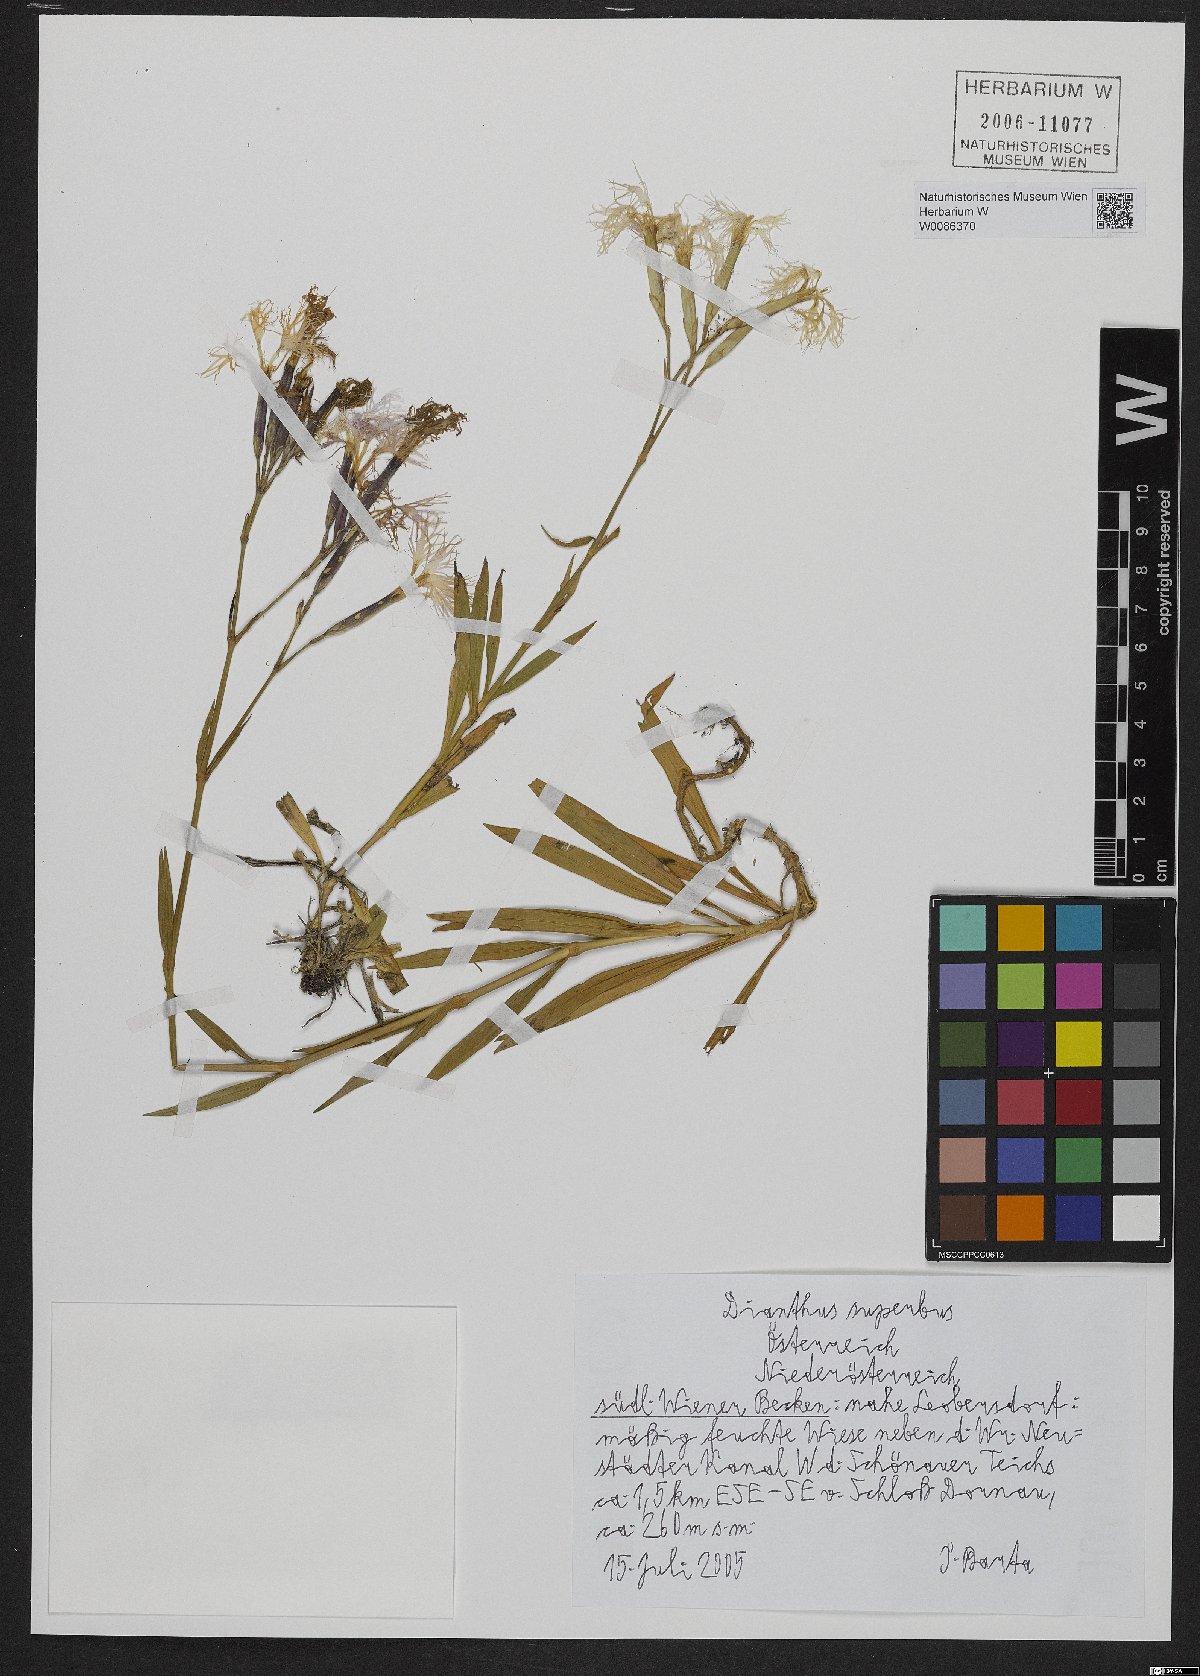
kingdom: Plantae
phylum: Tracheophyta
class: Magnoliopsida
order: Caryophyllales
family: Caryophyllaceae
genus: Dianthus
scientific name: Dianthus superbus
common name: Fringed pink
